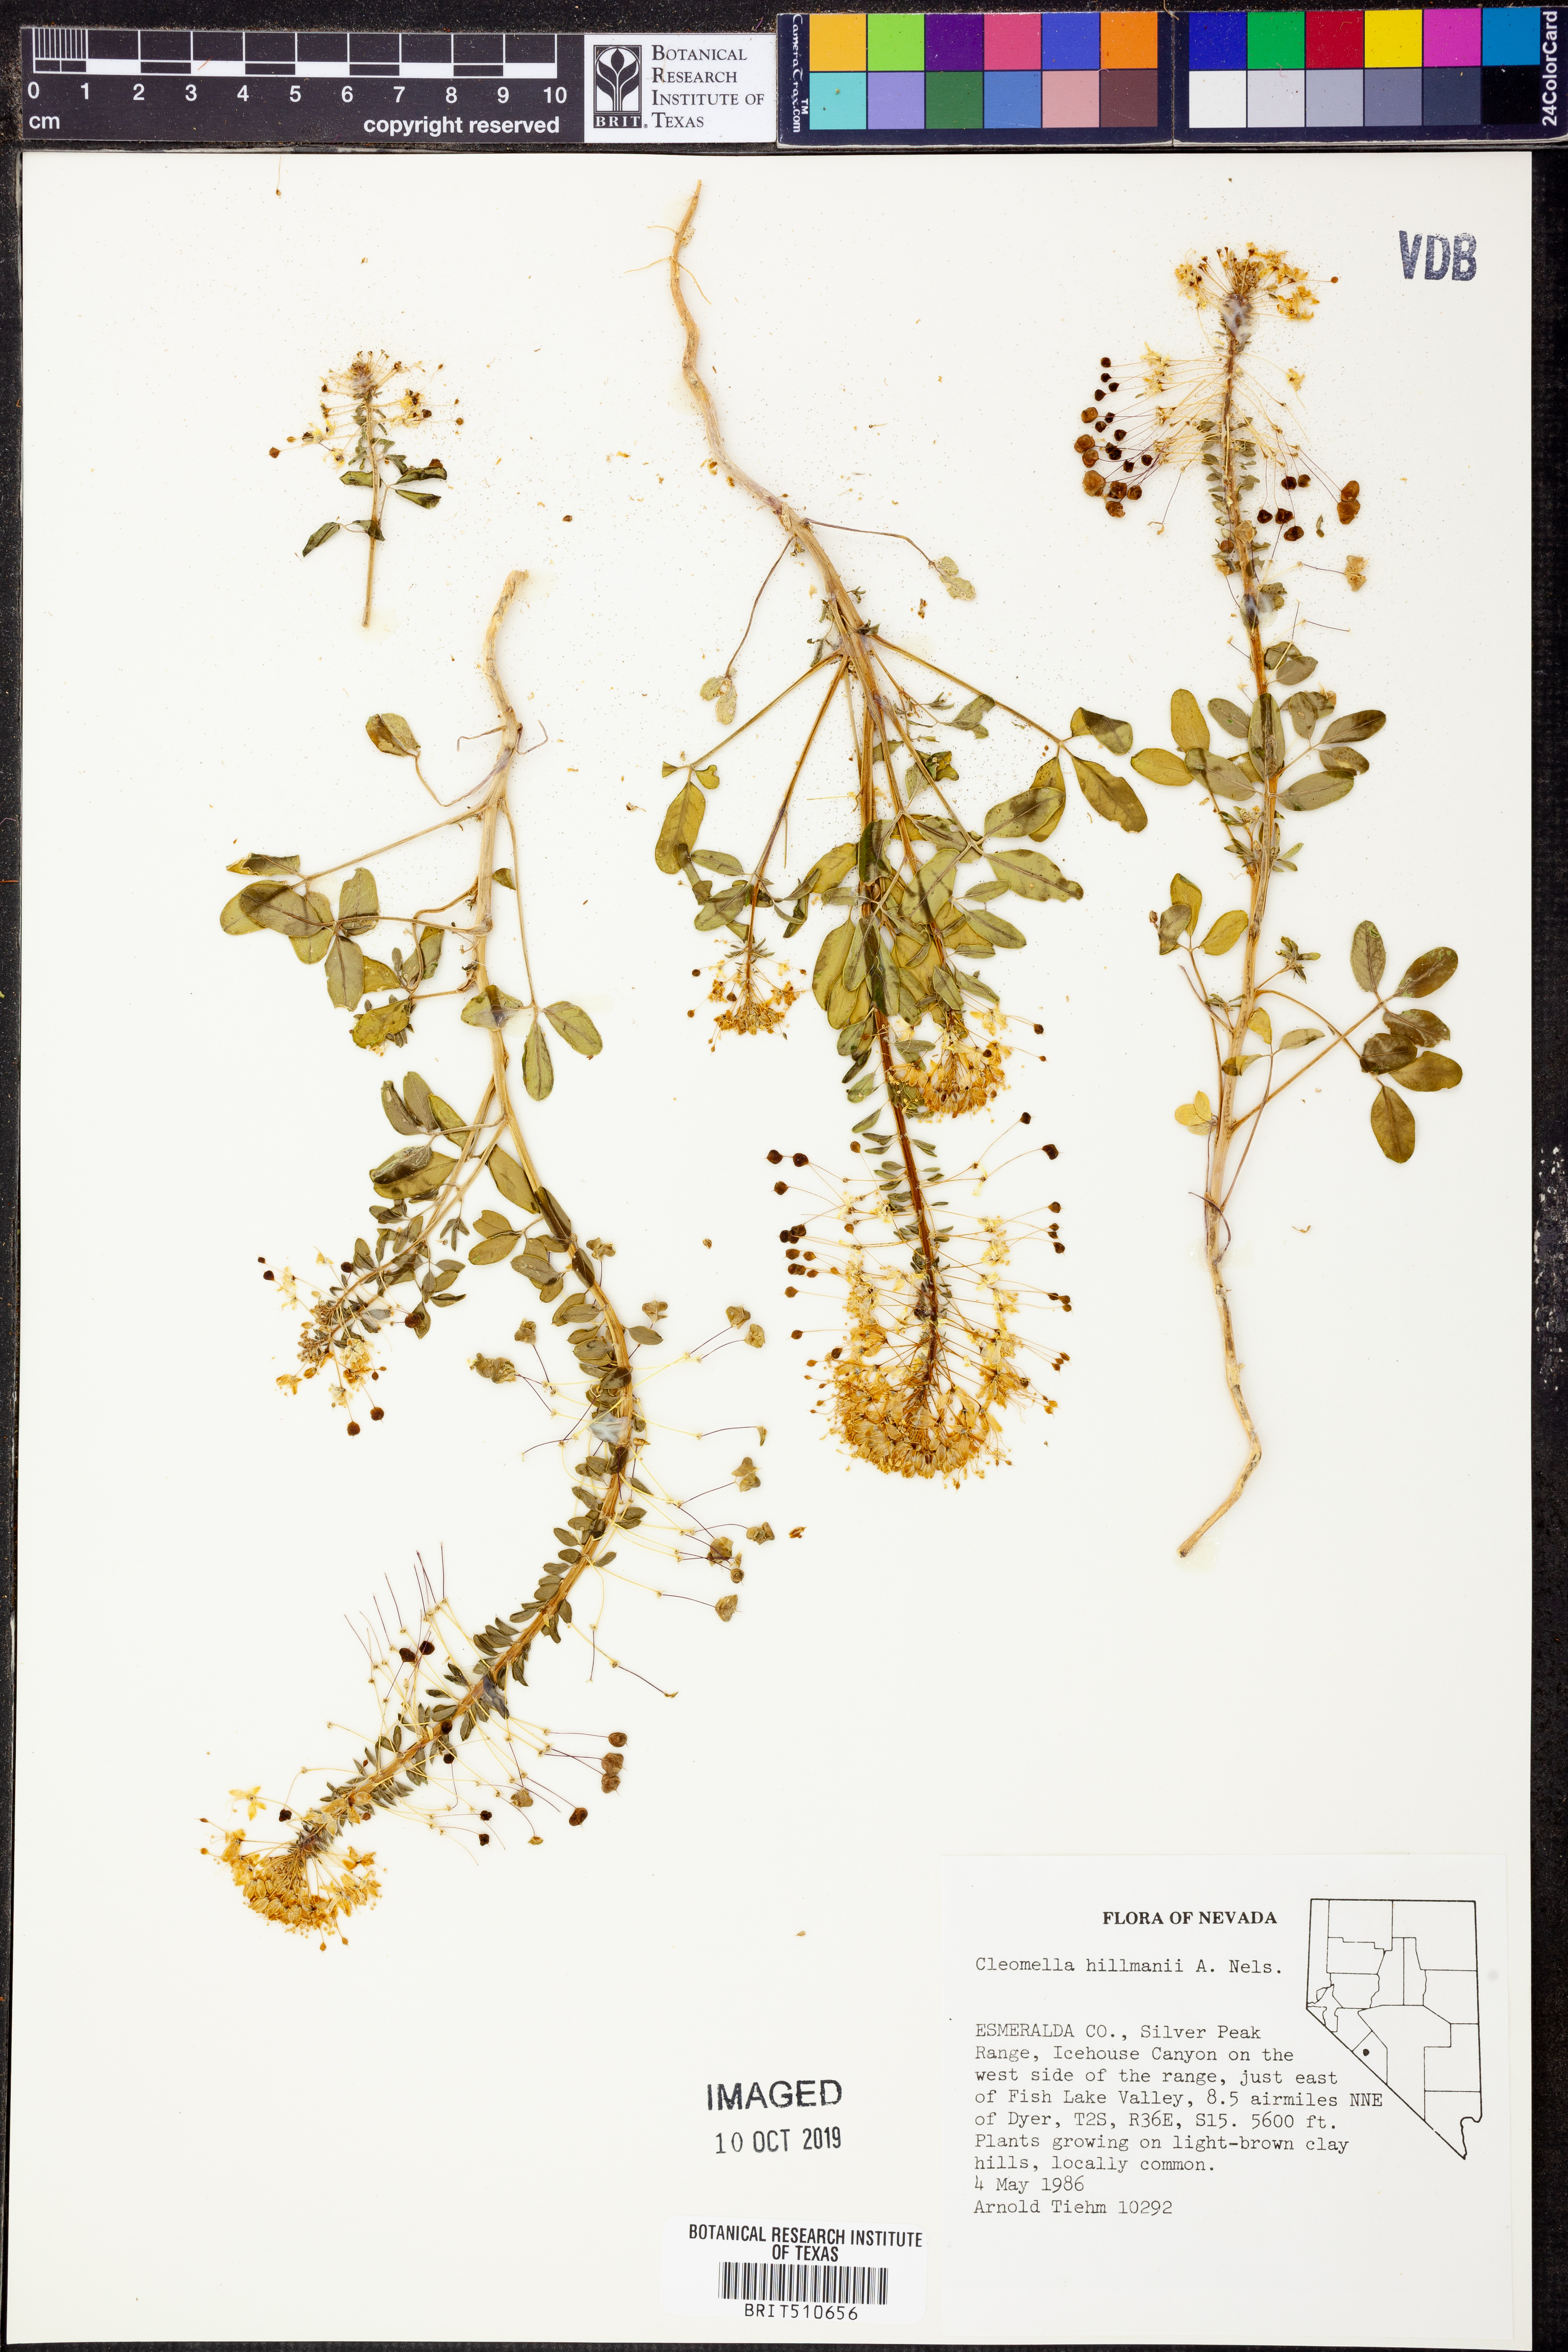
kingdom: Plantae
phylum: Tracheophyta
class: Magnoliopsida
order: Brassicales
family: Cleomaceae
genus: Cleomella
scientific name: Cleomella hillmanii
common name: Desert stinkweed
